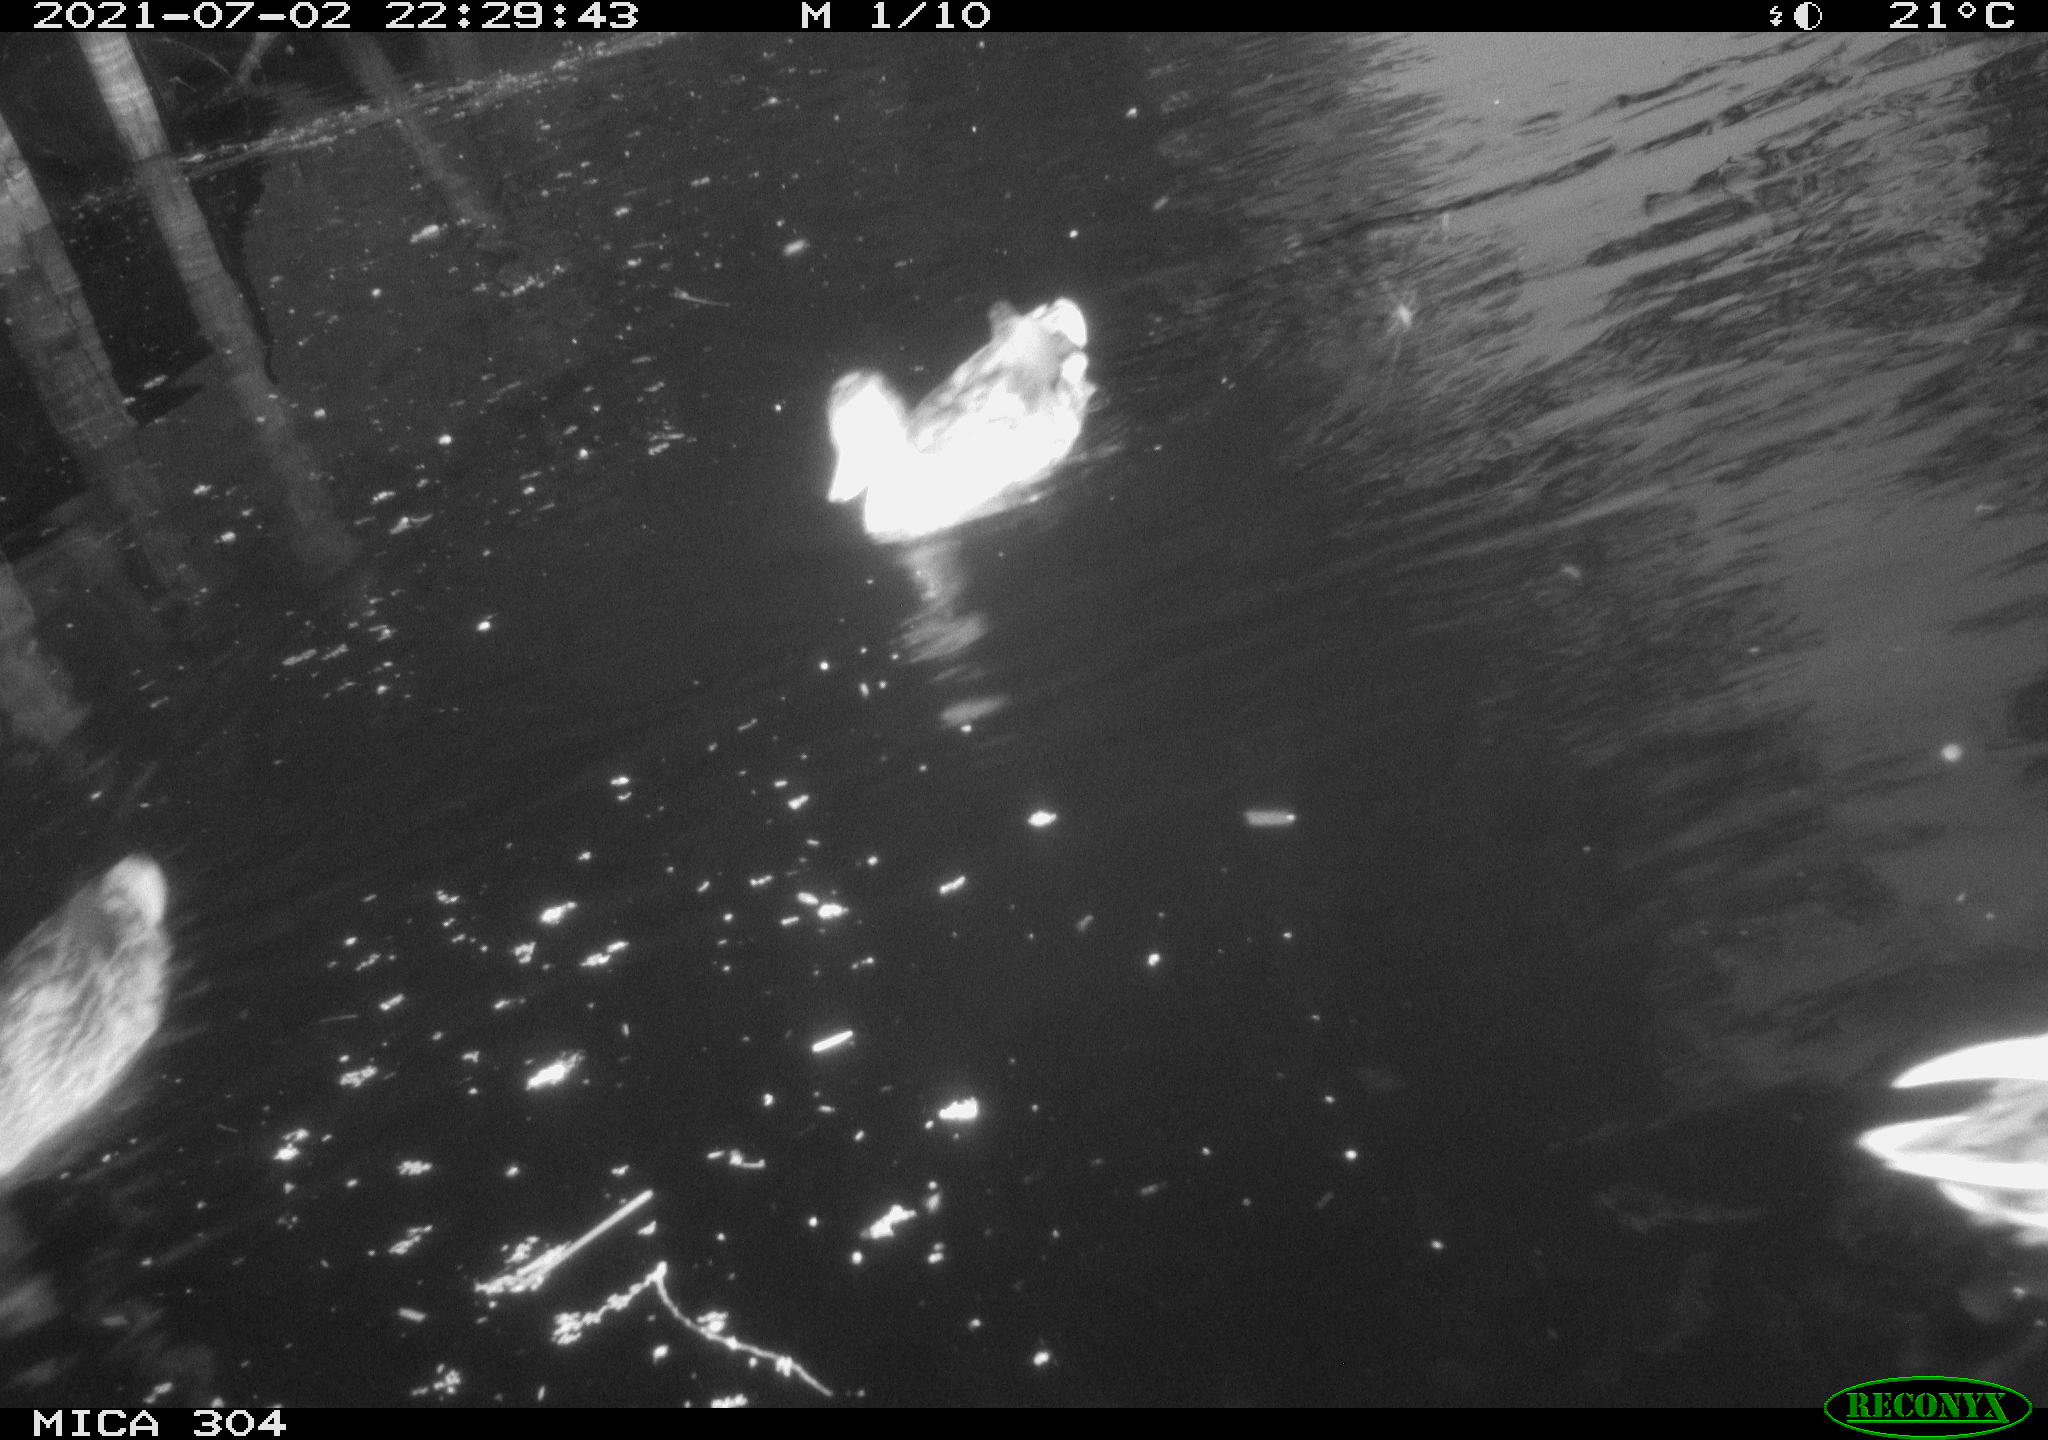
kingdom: Animalia
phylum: Chordata
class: Aves
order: Anseriformes
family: Anatidae
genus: Anas
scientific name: Anas platyrhynchos
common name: Mallard
